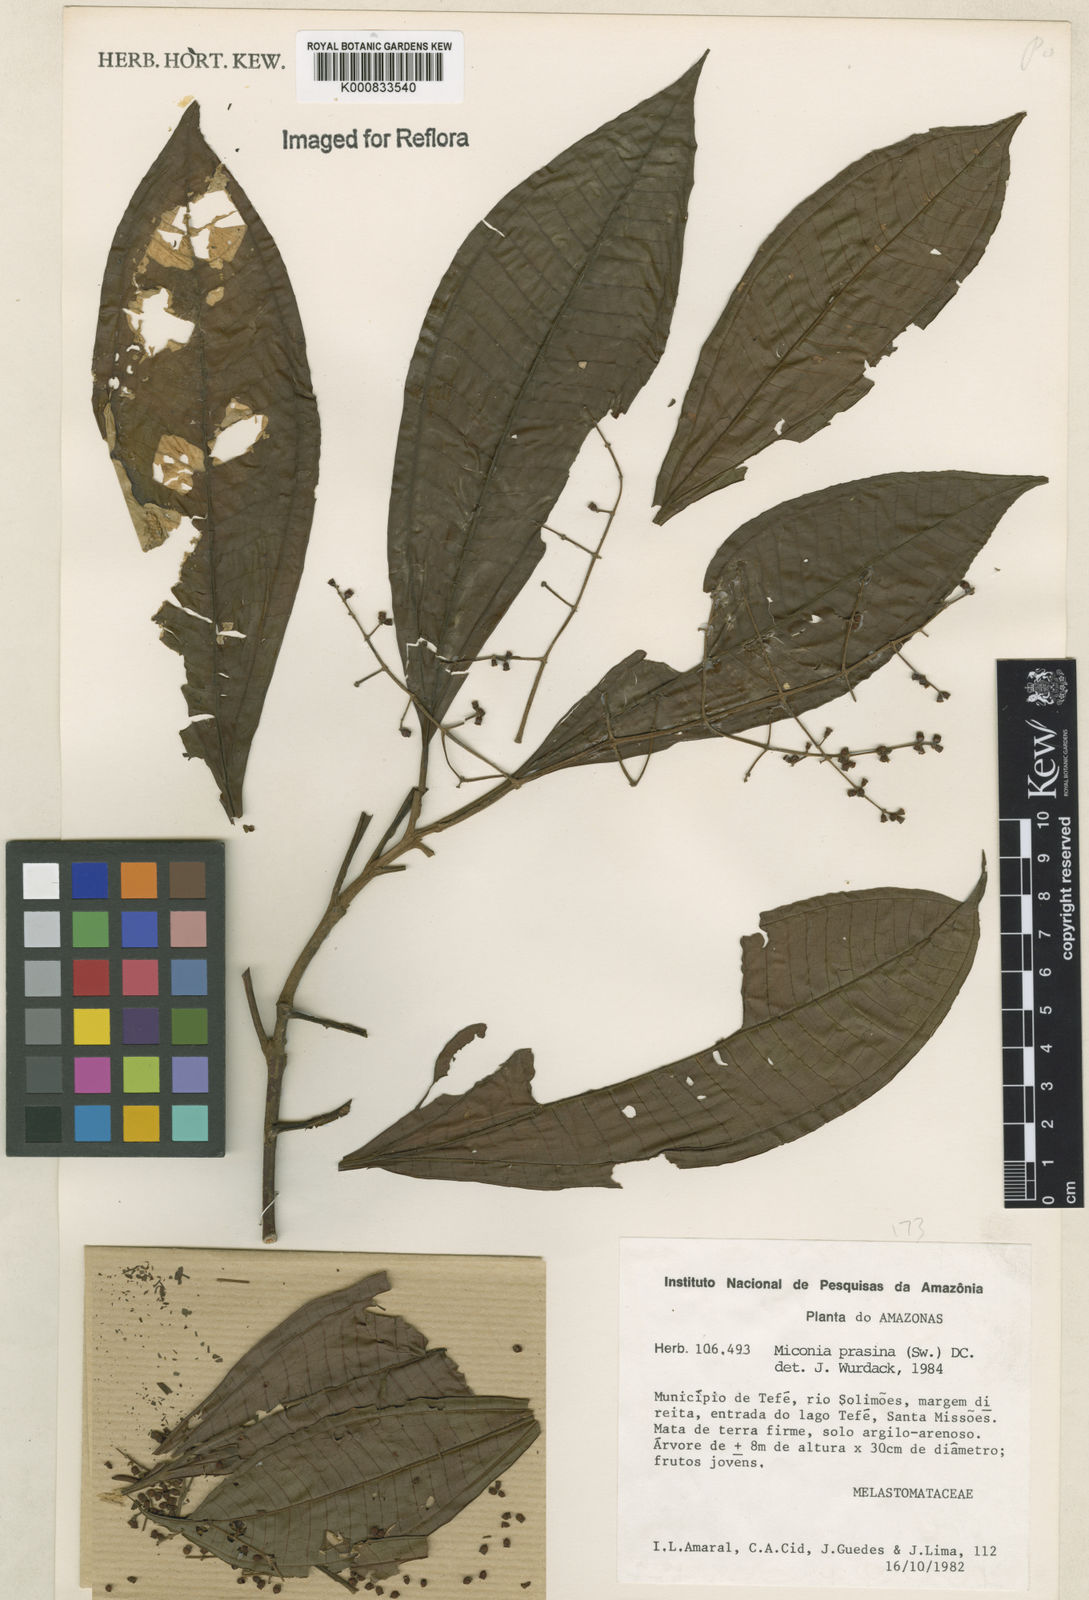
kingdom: Plantae
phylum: Tracheophyta
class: Magnoliopsida
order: Myrtales
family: Melastomataceae
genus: Miconia
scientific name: Miconia prasina
